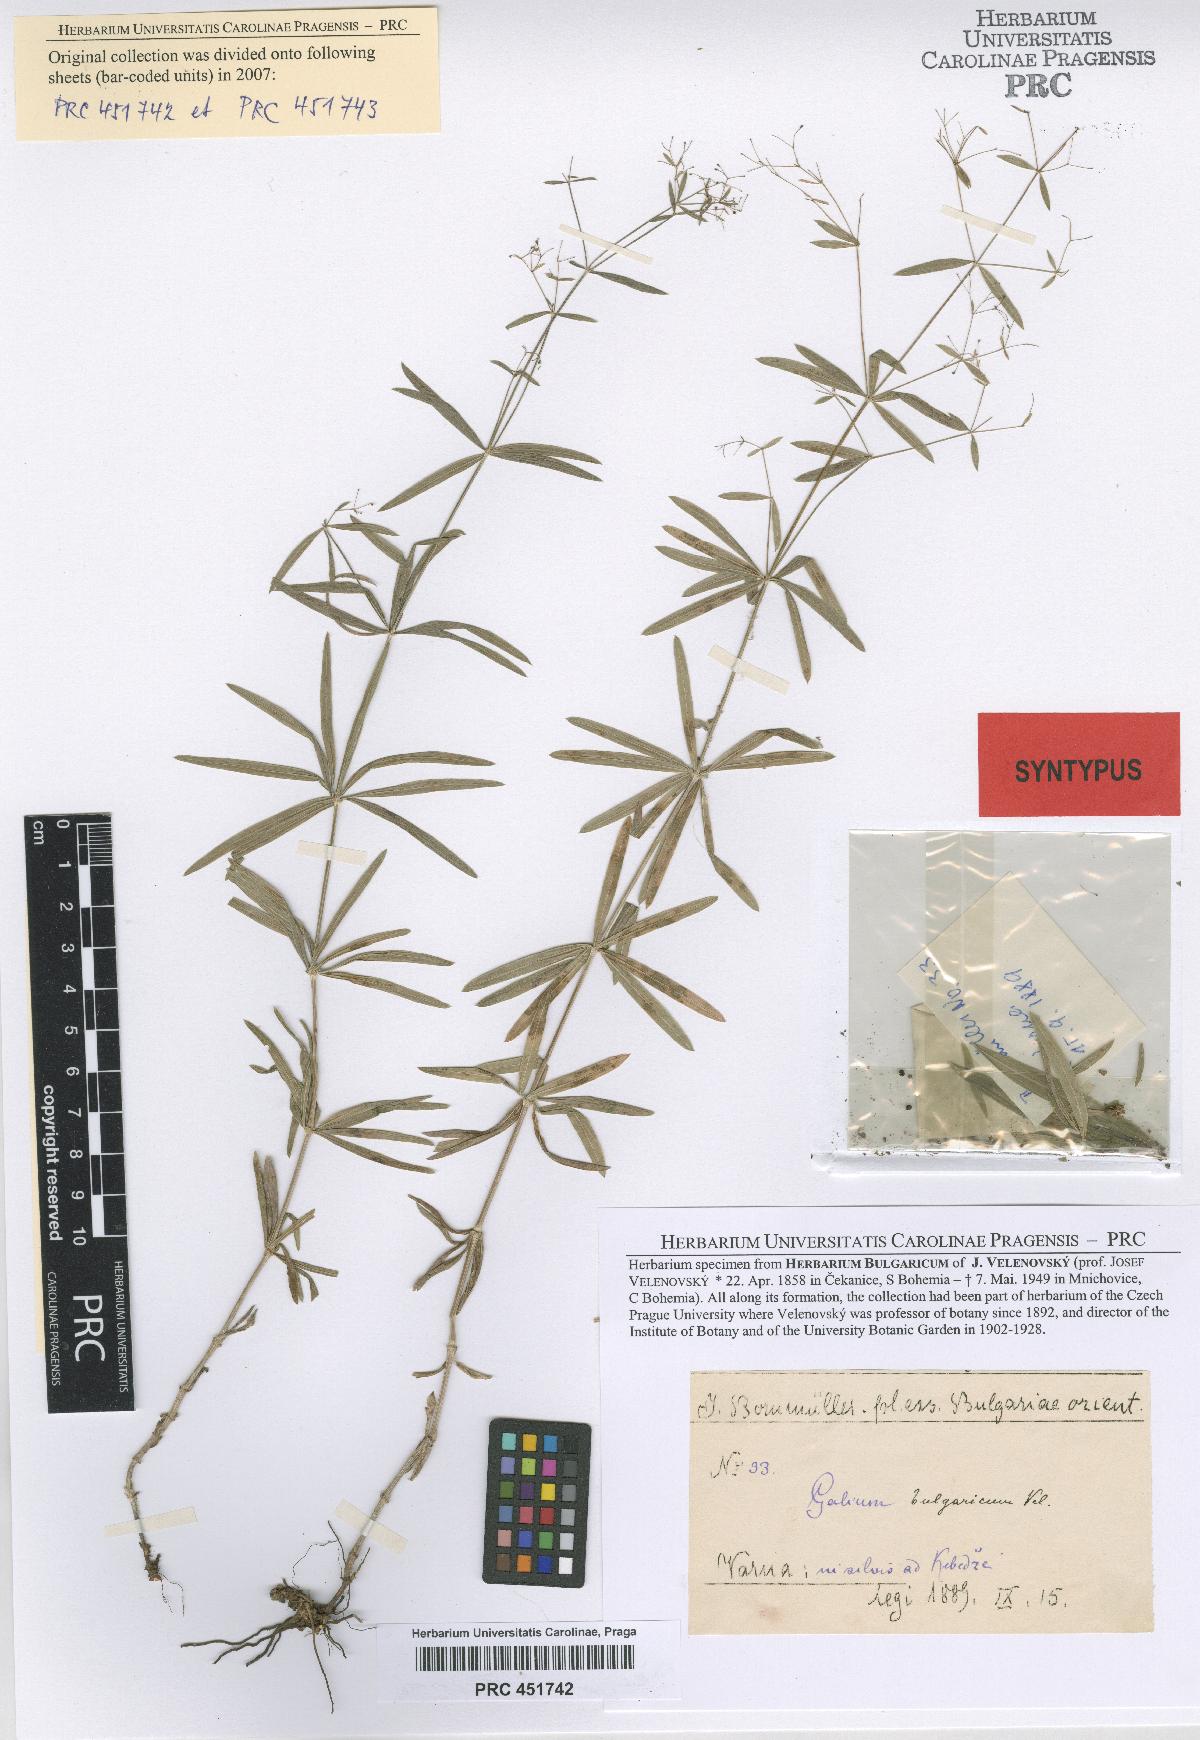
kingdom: Plantae
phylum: Tracheophyta
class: Magnoliopsida
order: Gentianales
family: Rubiaceae
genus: Galium
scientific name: Galium paschale
